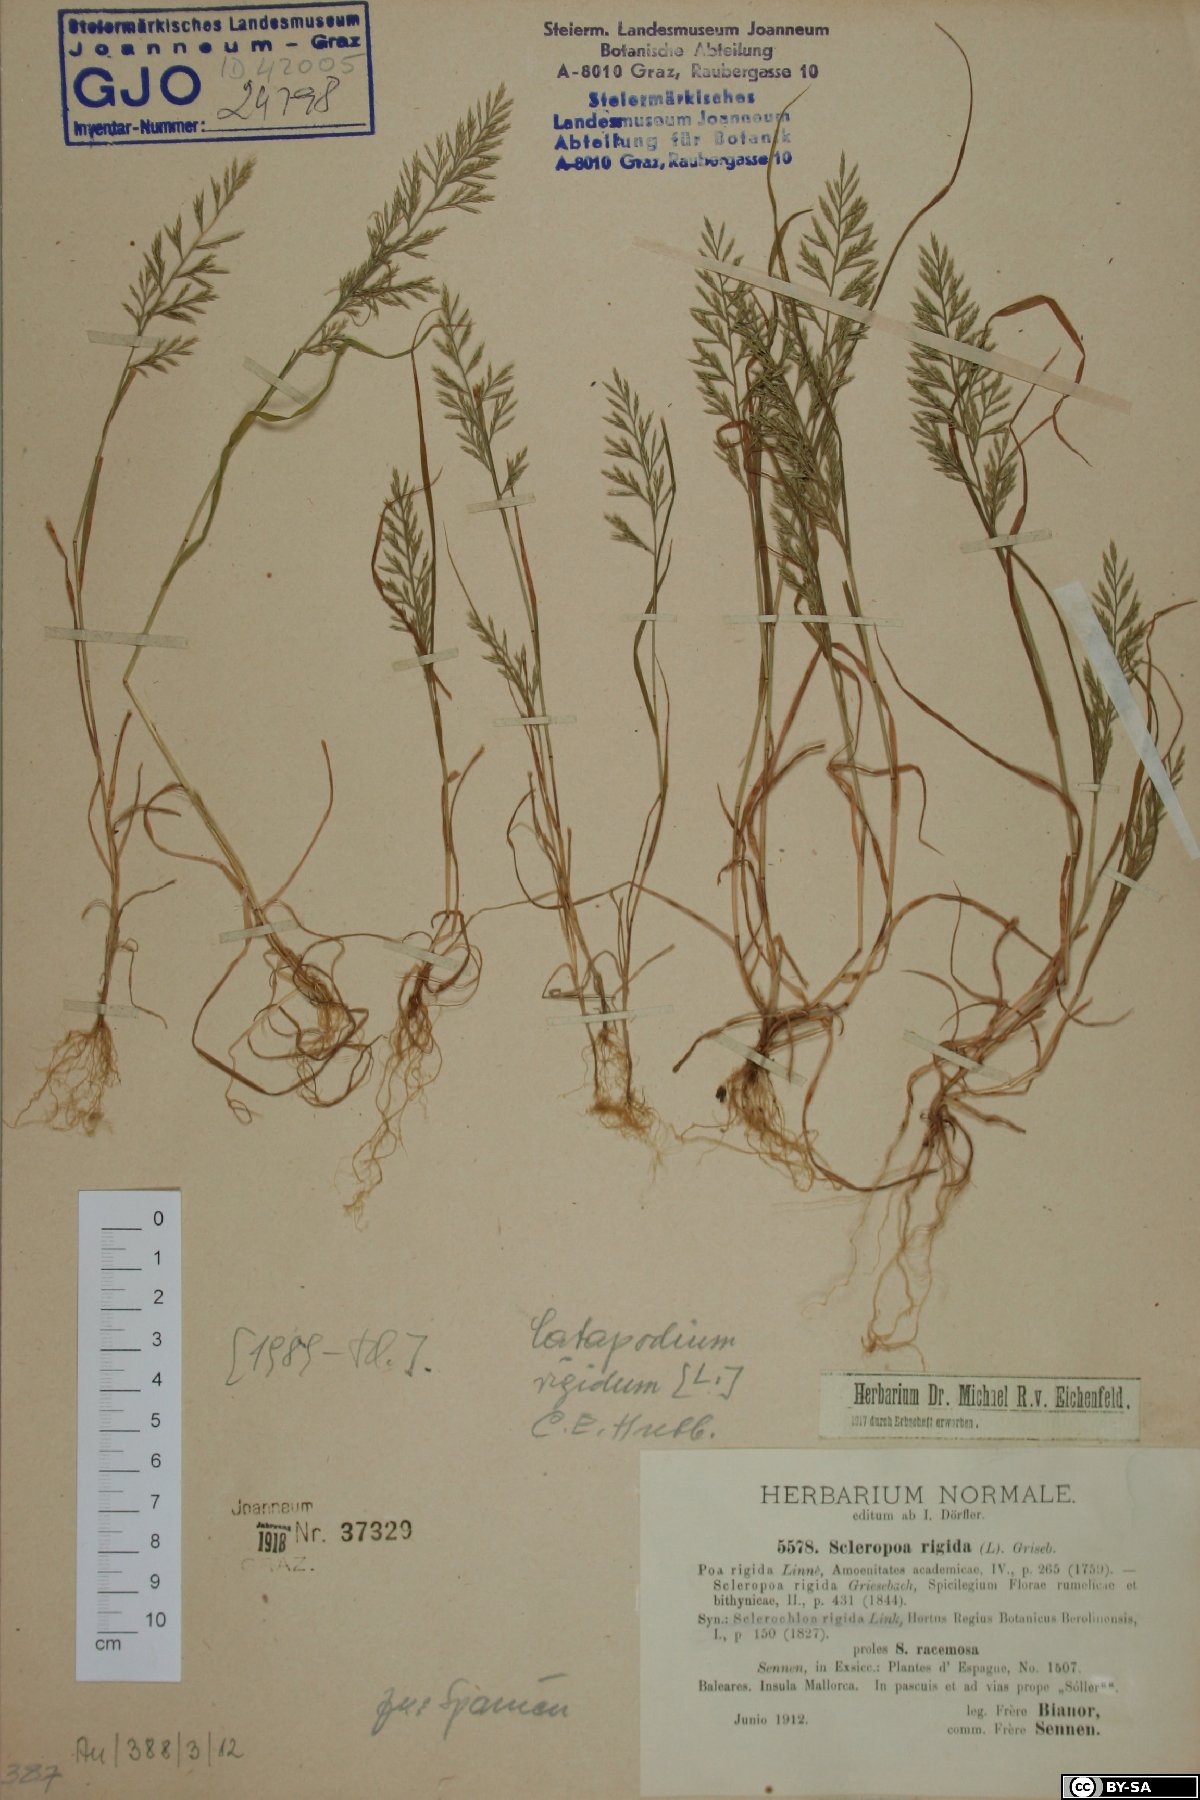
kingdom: Plantae
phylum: Tracheophyta
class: Liliopsida
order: Poales
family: Poaceae
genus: Catapodium
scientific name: Catapodium rigidum
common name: Fern-grass
